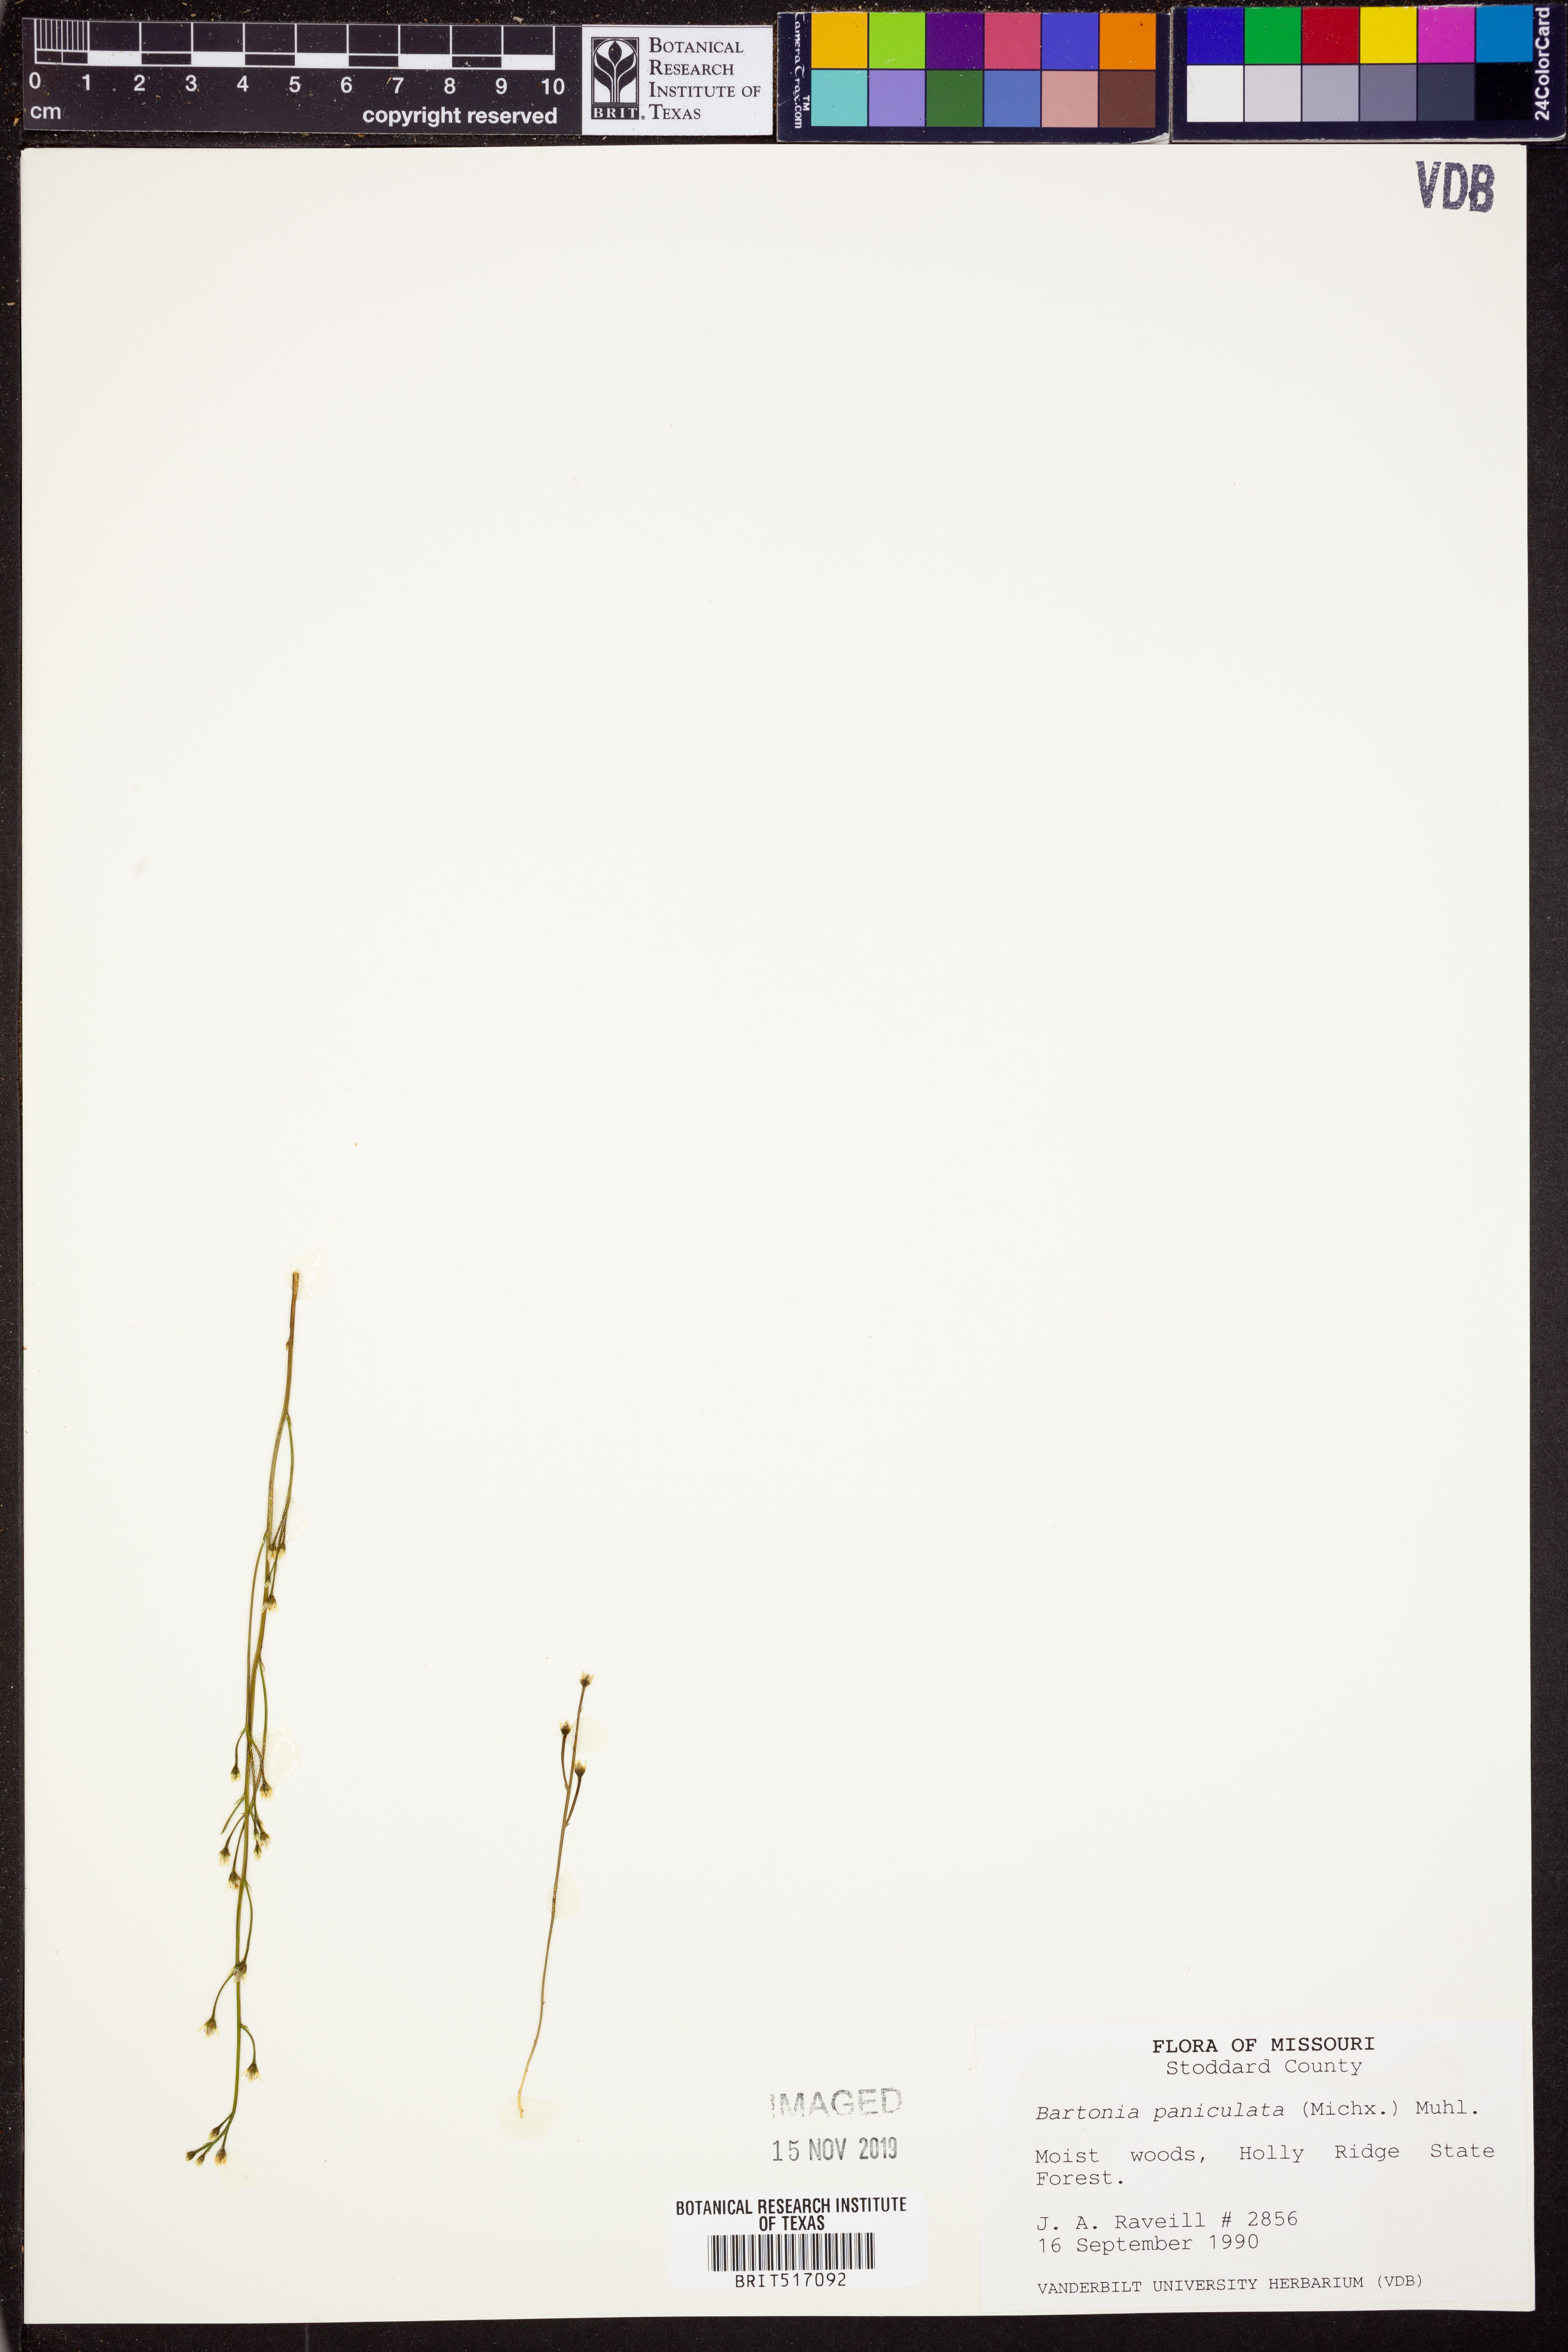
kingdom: Plantae
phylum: Tracheophyta
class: Magnoliopsida
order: Gentianales
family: Gentianaceae
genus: Bartonia
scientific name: Bartonia paniculata
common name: Branched bartonia
